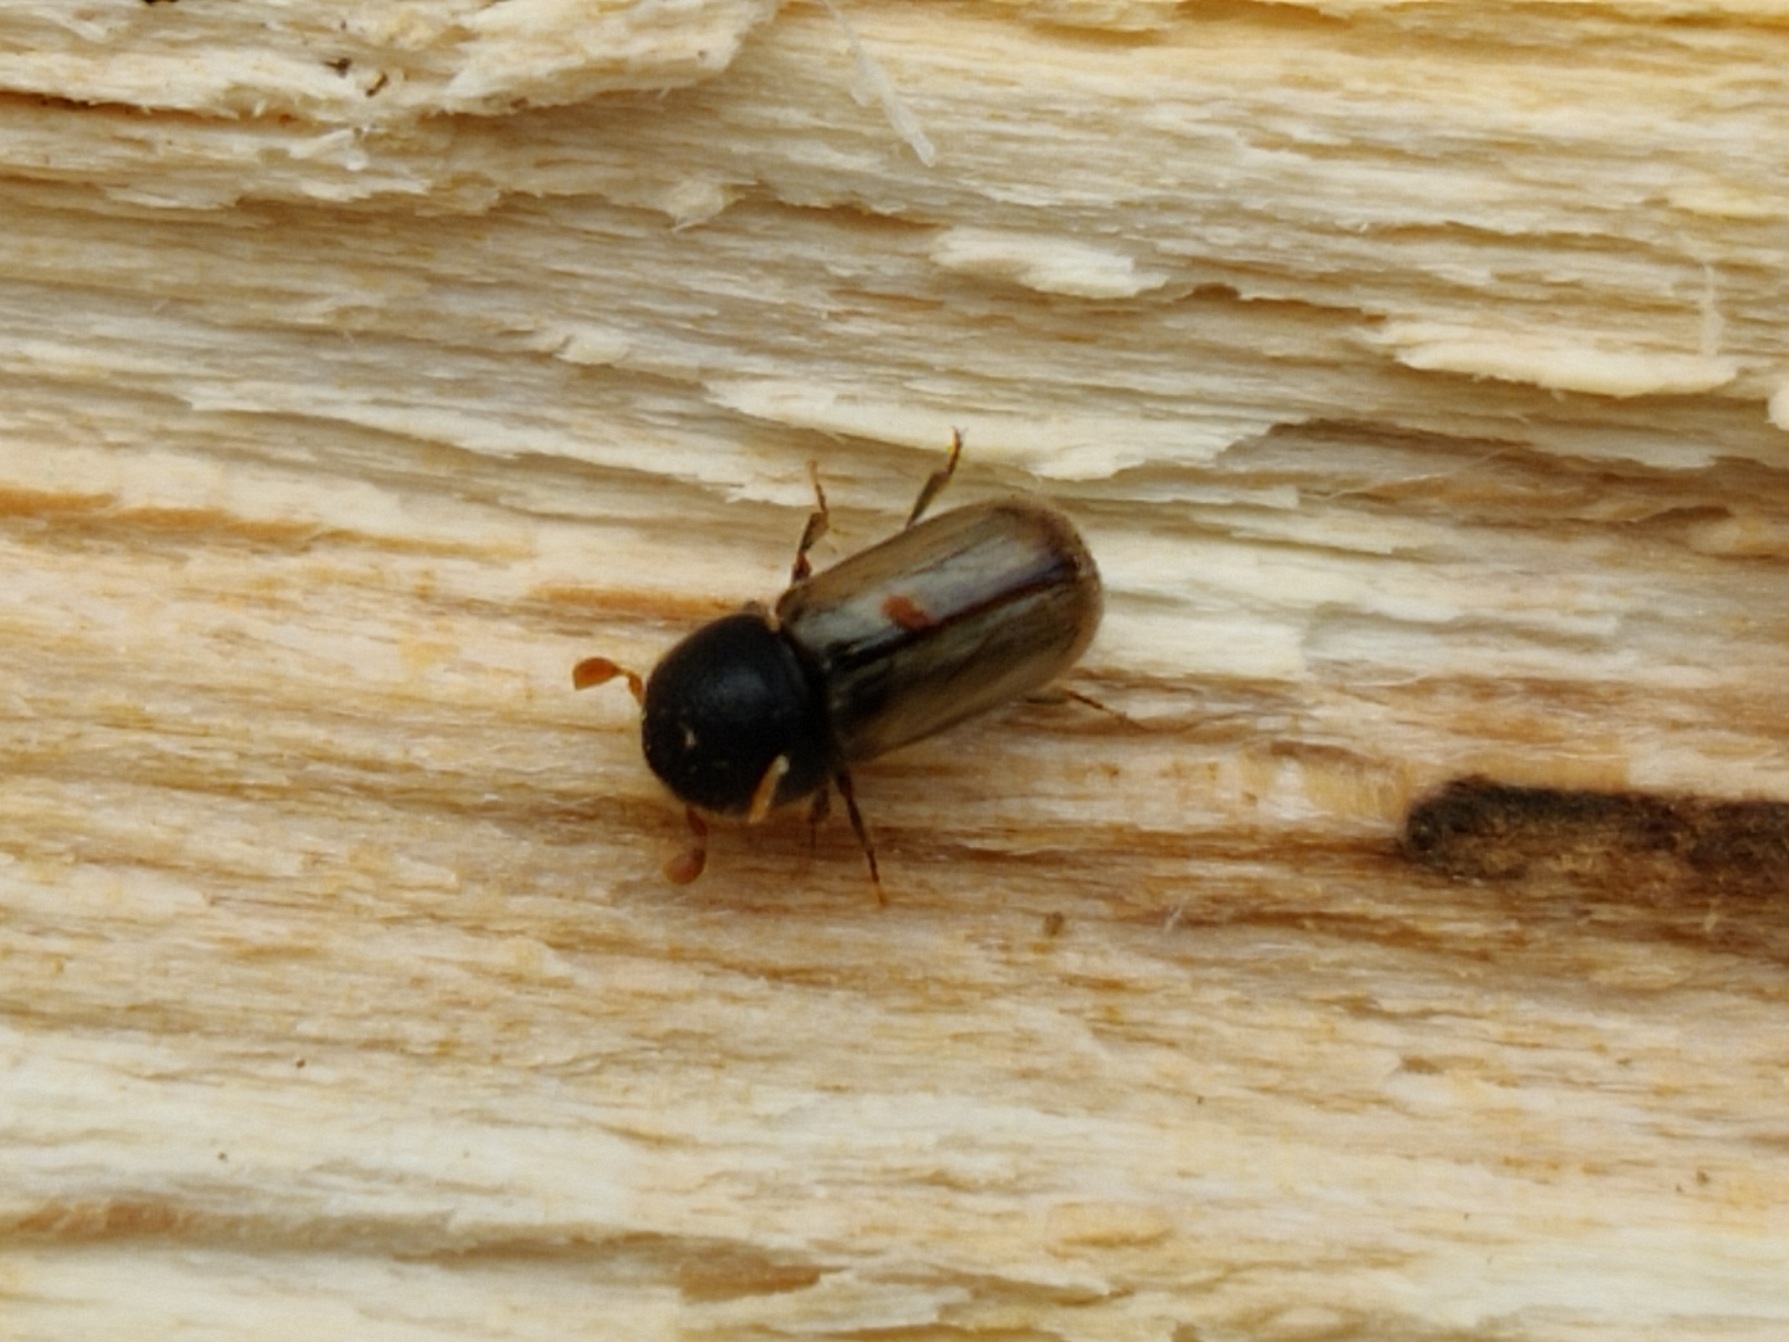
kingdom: Animalia
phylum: Arthropoda
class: Insecta
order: Coleoptera
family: Curculionidae
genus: Trypodendron
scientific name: Trypodendron domesticum
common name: Gul vedborer
